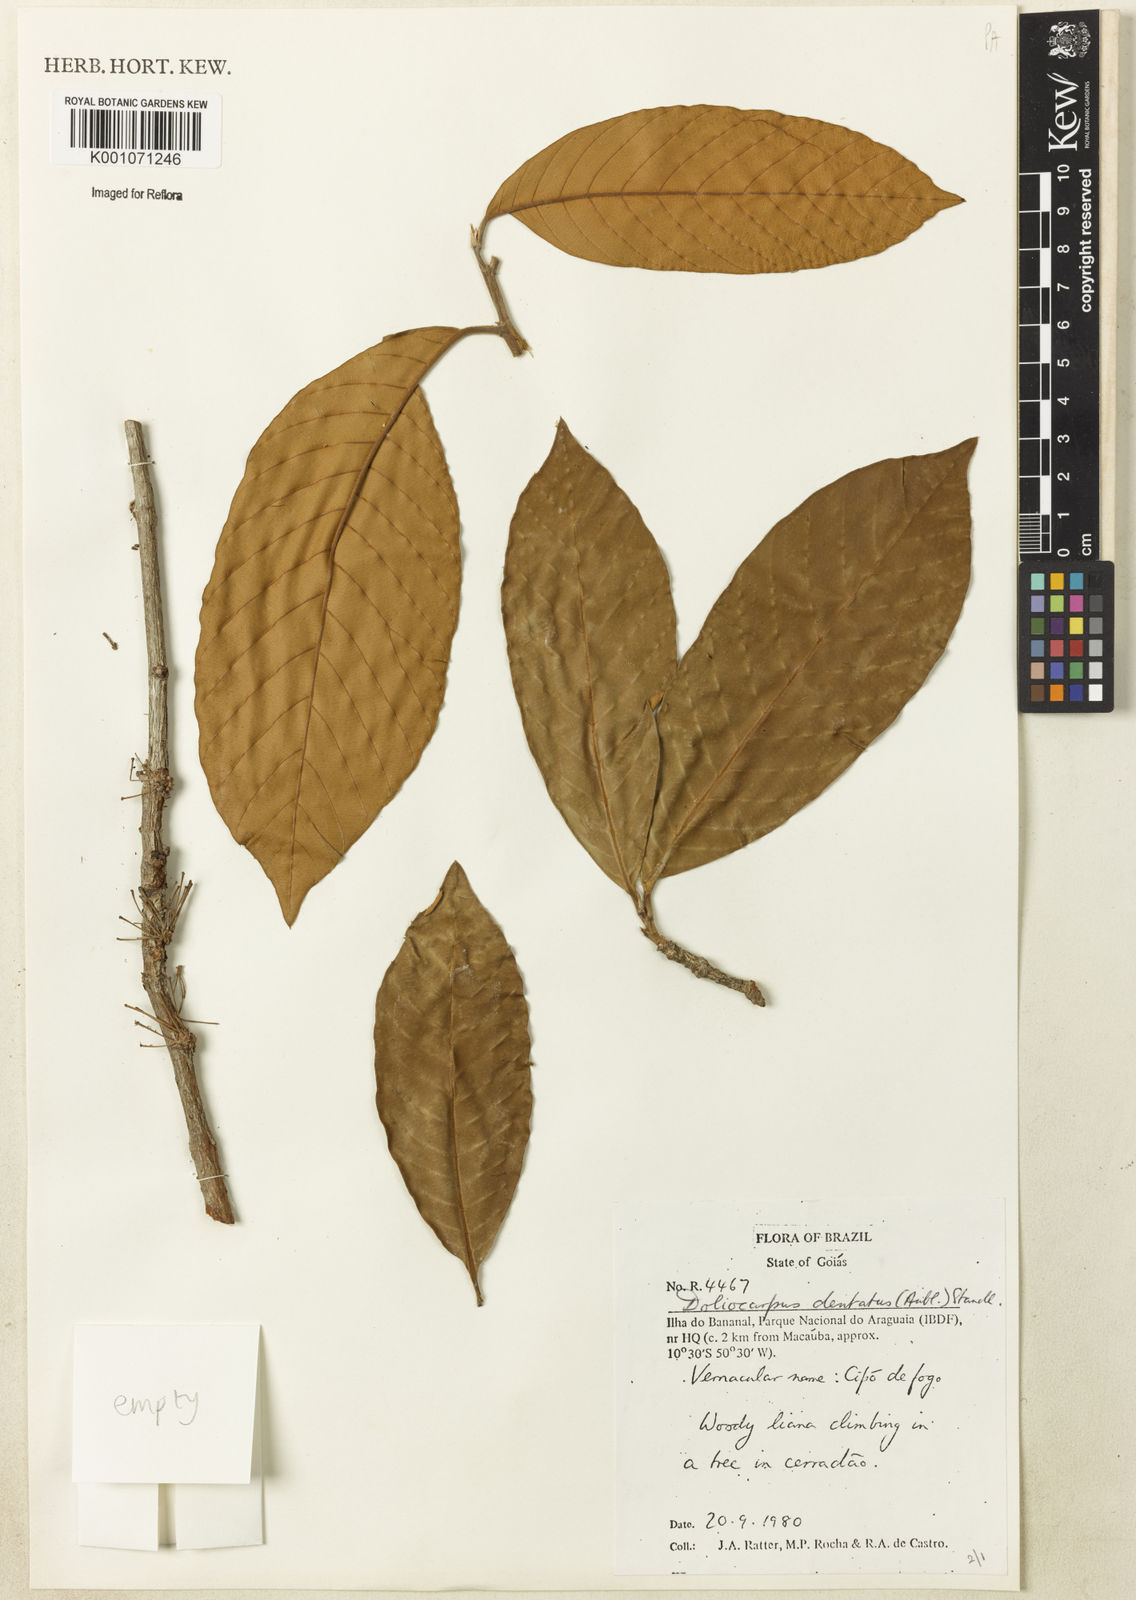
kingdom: Plantae
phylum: Tracheophyta
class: Magnoliopsida
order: Dilleniales
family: Dilleniaceae
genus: Doliocarpus
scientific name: Doliocarpus dentatus
